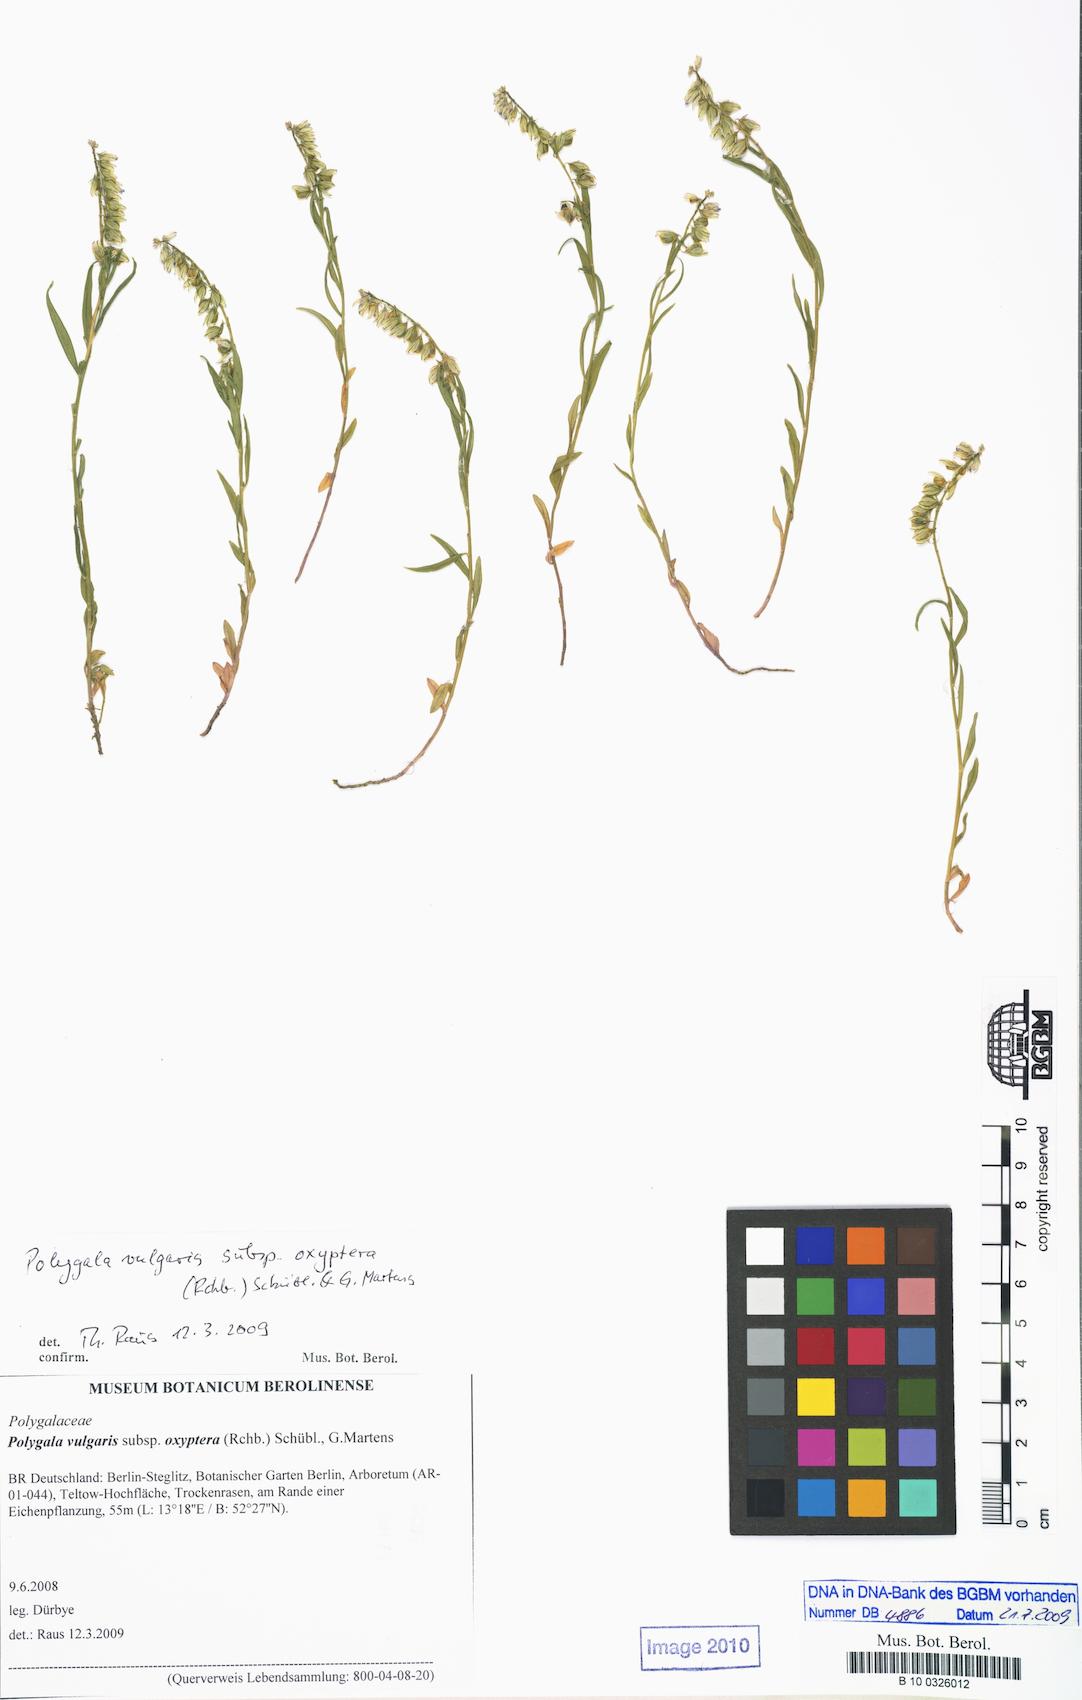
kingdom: Plantae
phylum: Tracheophyta
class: Magnoliopsida
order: Fabales
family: Polygalaceae
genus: Polygala
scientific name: Polygala vulgaris
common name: Common milkwort
